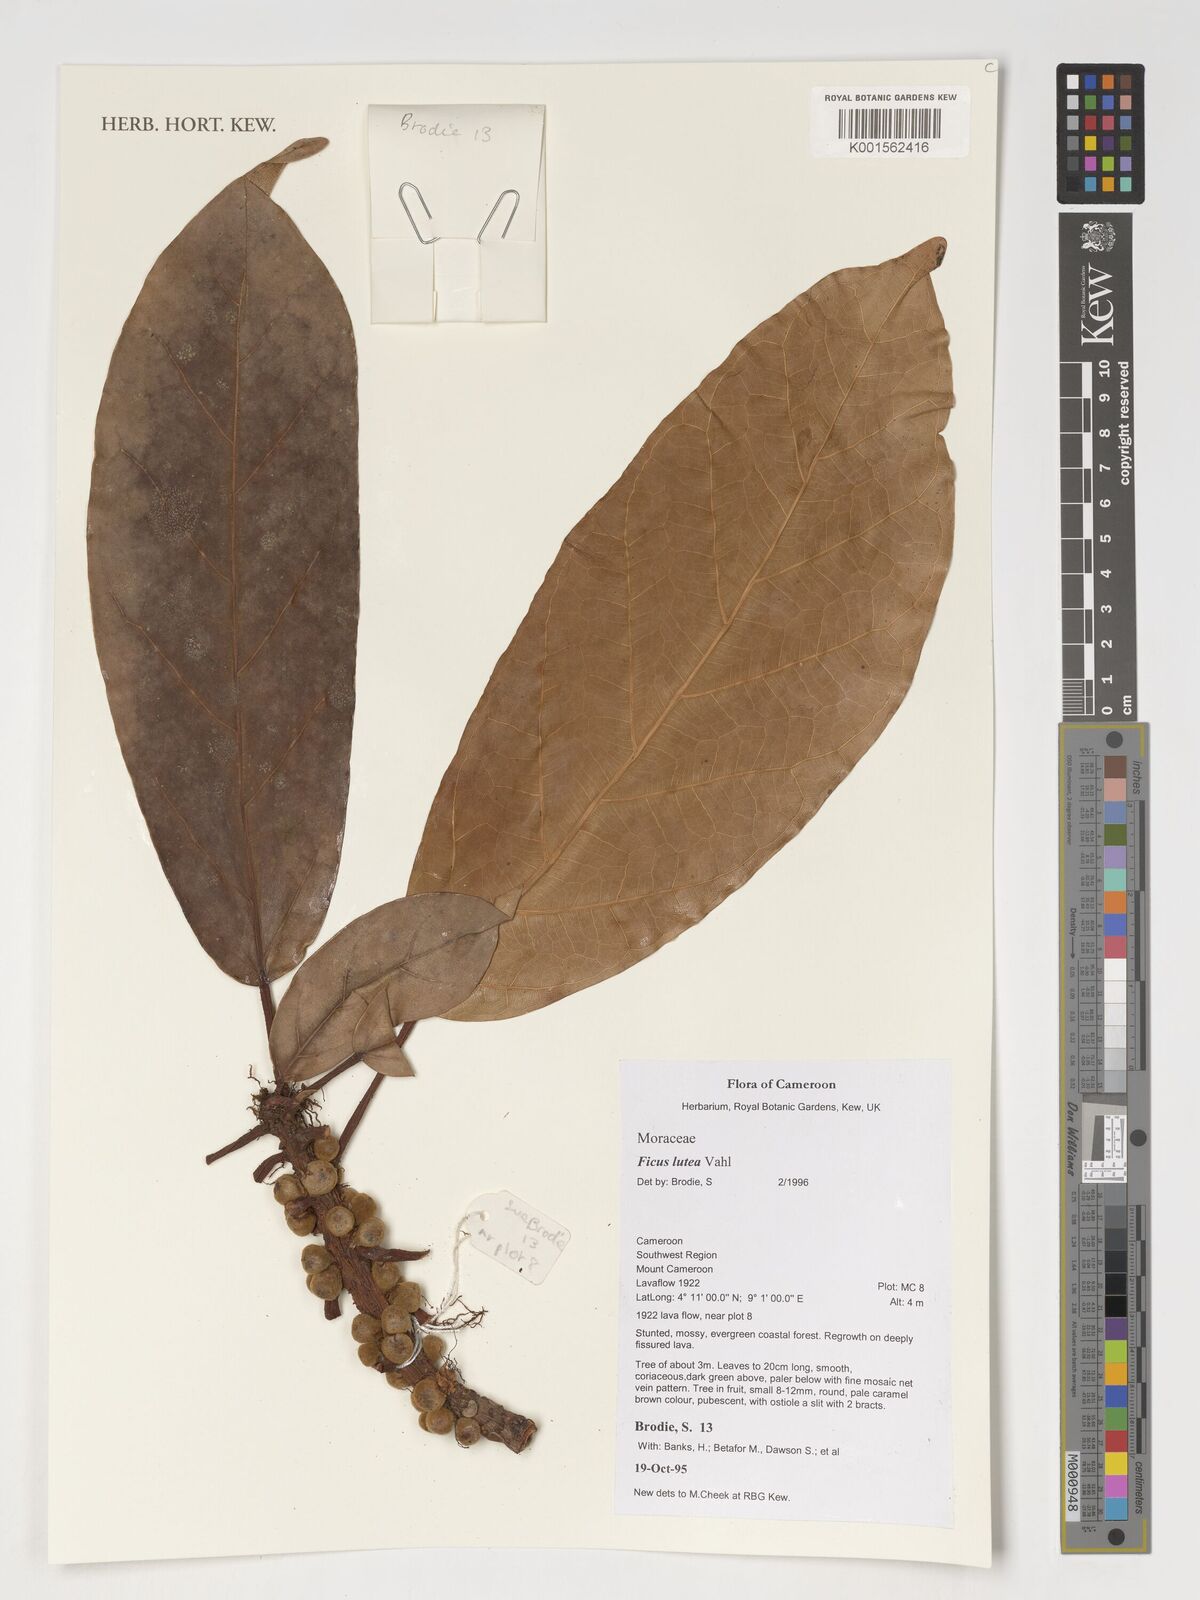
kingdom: Plantae
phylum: Tracheophyta
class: Magnoliopsida
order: Rosales
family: Moraceae
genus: Ficus
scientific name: Ficus lutea
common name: Giant-leaved fig
